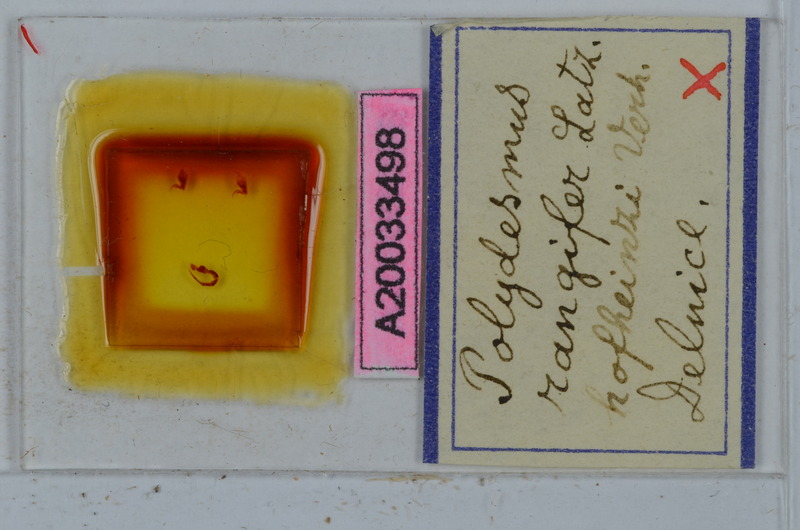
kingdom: Animalia
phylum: Arthropoda
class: Diplopoda
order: Polydesmida
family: Polydesmidae
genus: Polydesmus
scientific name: Polydesmus rangifer
